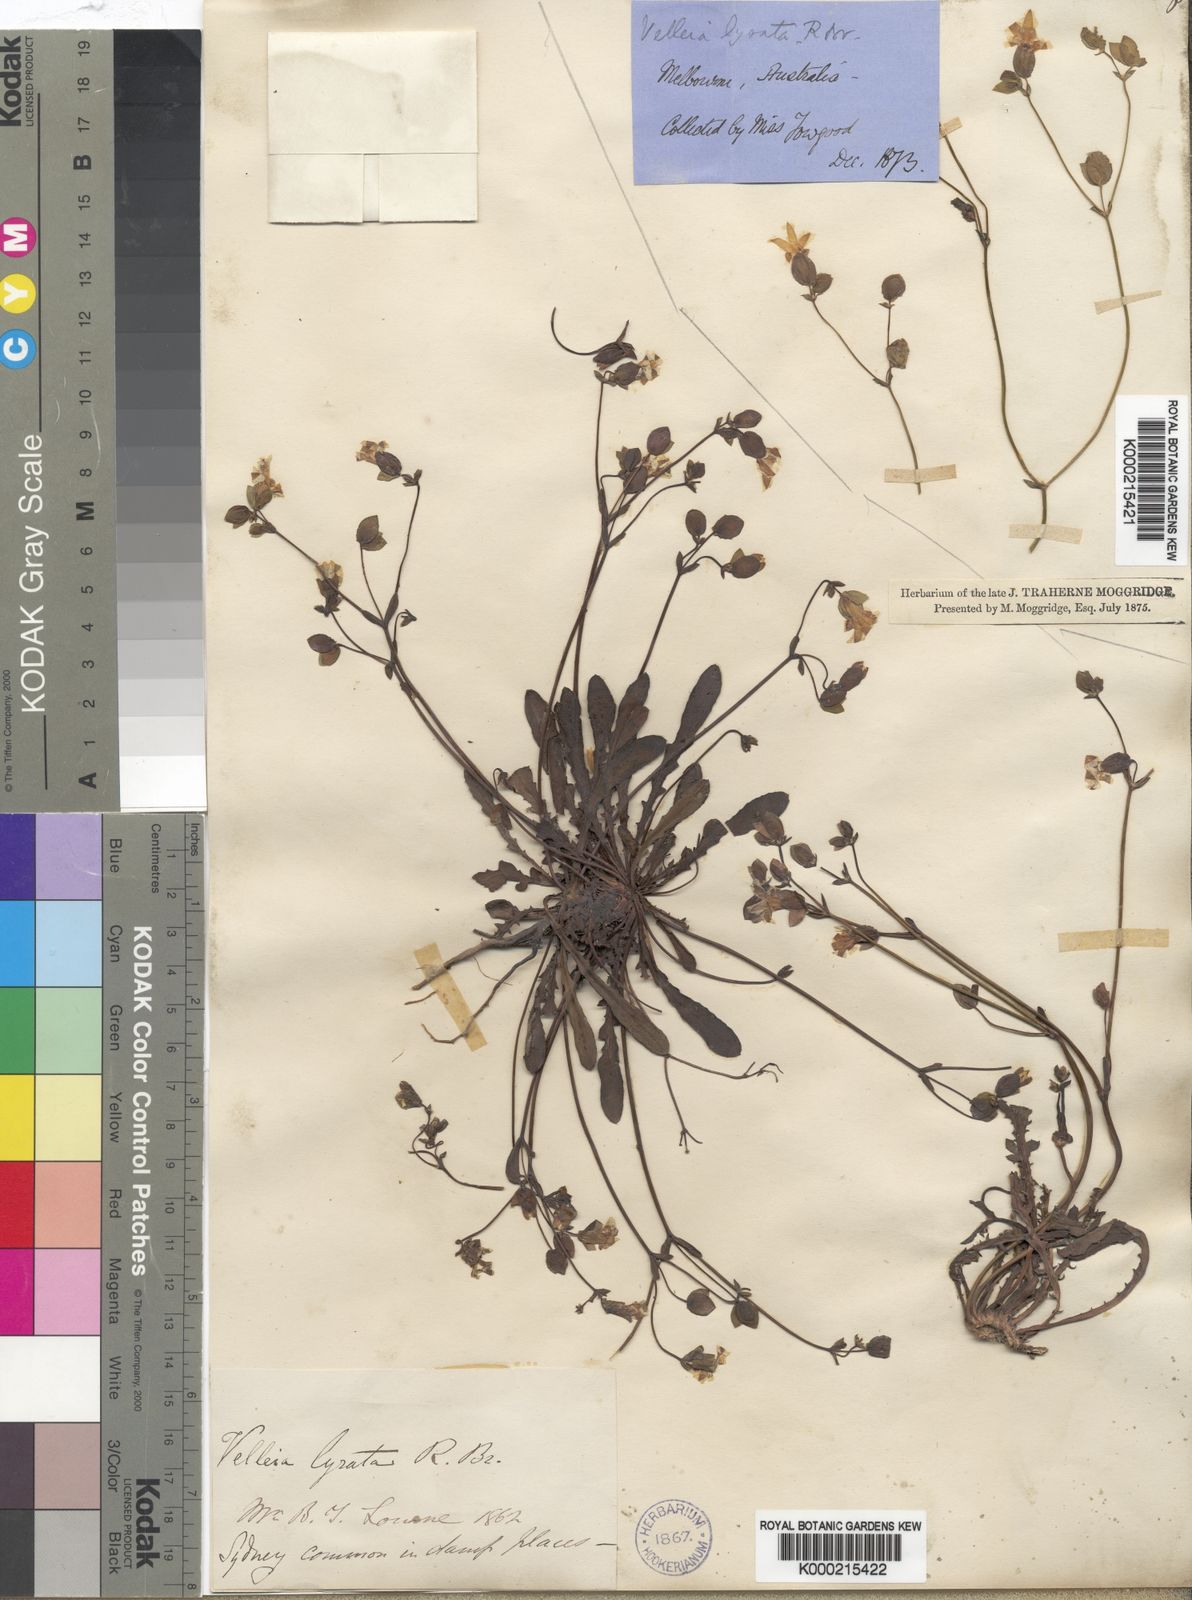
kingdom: Plantae
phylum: Tracheophyta
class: Magnoliopsida
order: Asterales
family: Goodeniaceae
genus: Goodenia
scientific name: Goodenia caroliniana
